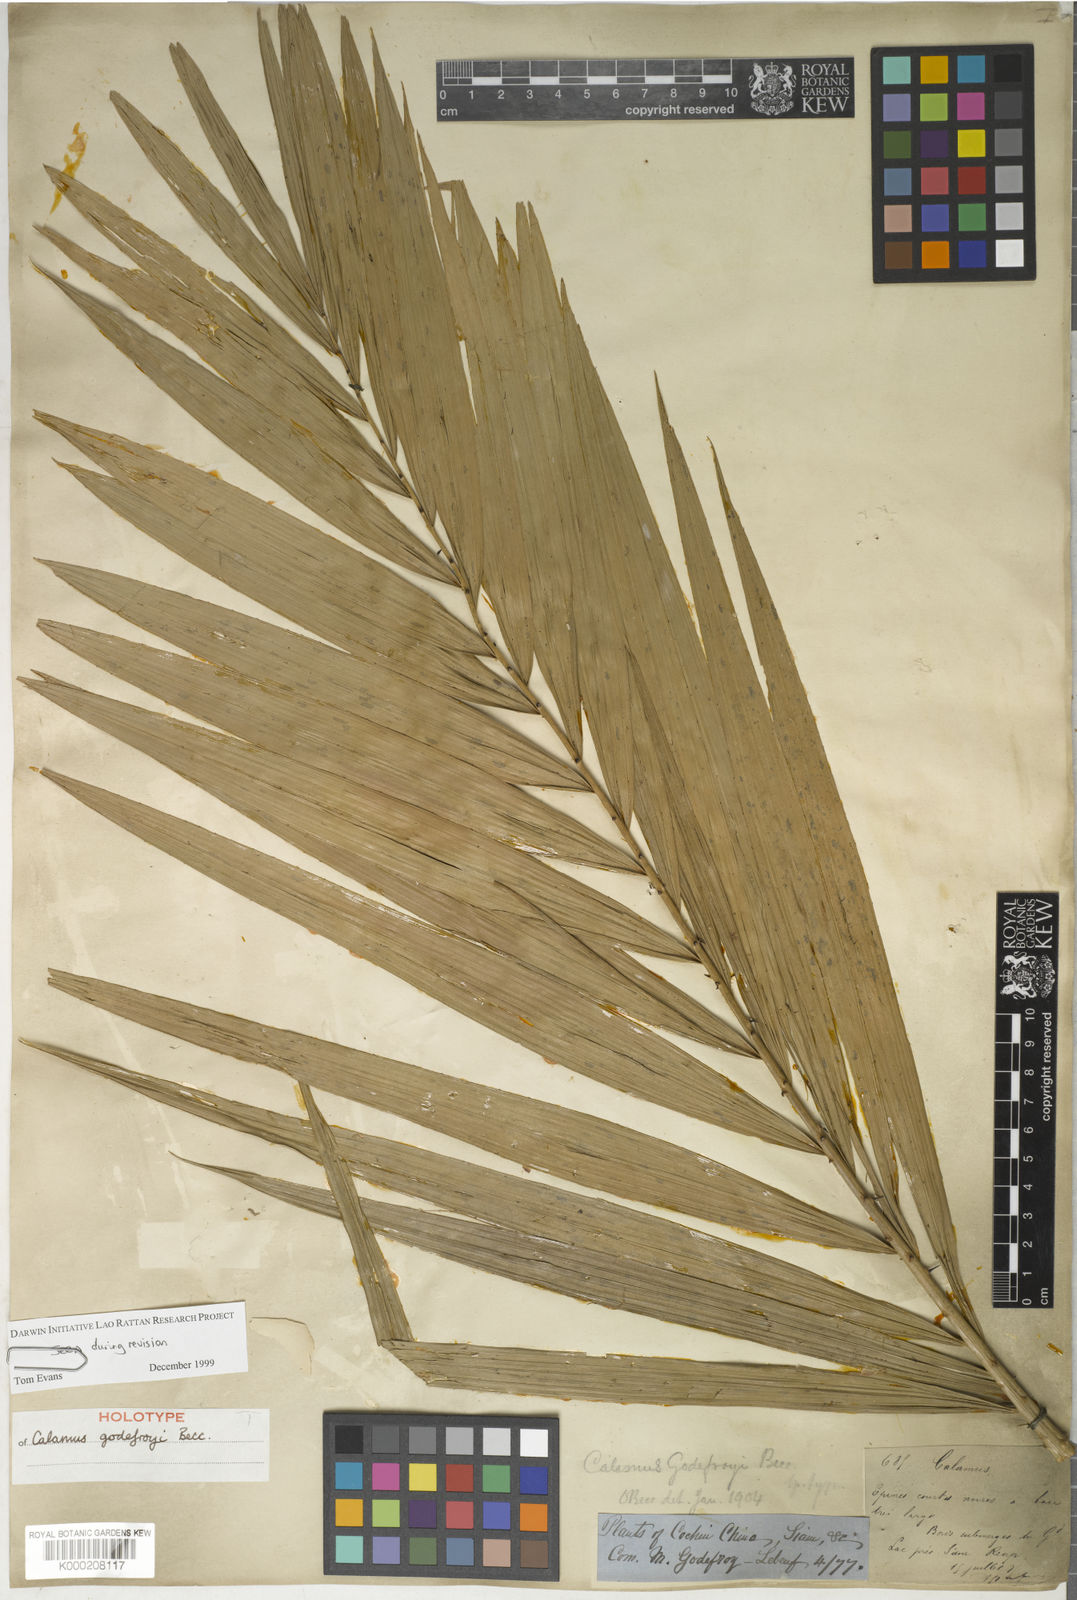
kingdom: Plantae
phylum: Tracheophyta
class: Liliopsida
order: Arecales
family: Arecaceae
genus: Calamus
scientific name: Calamus godefroyi
